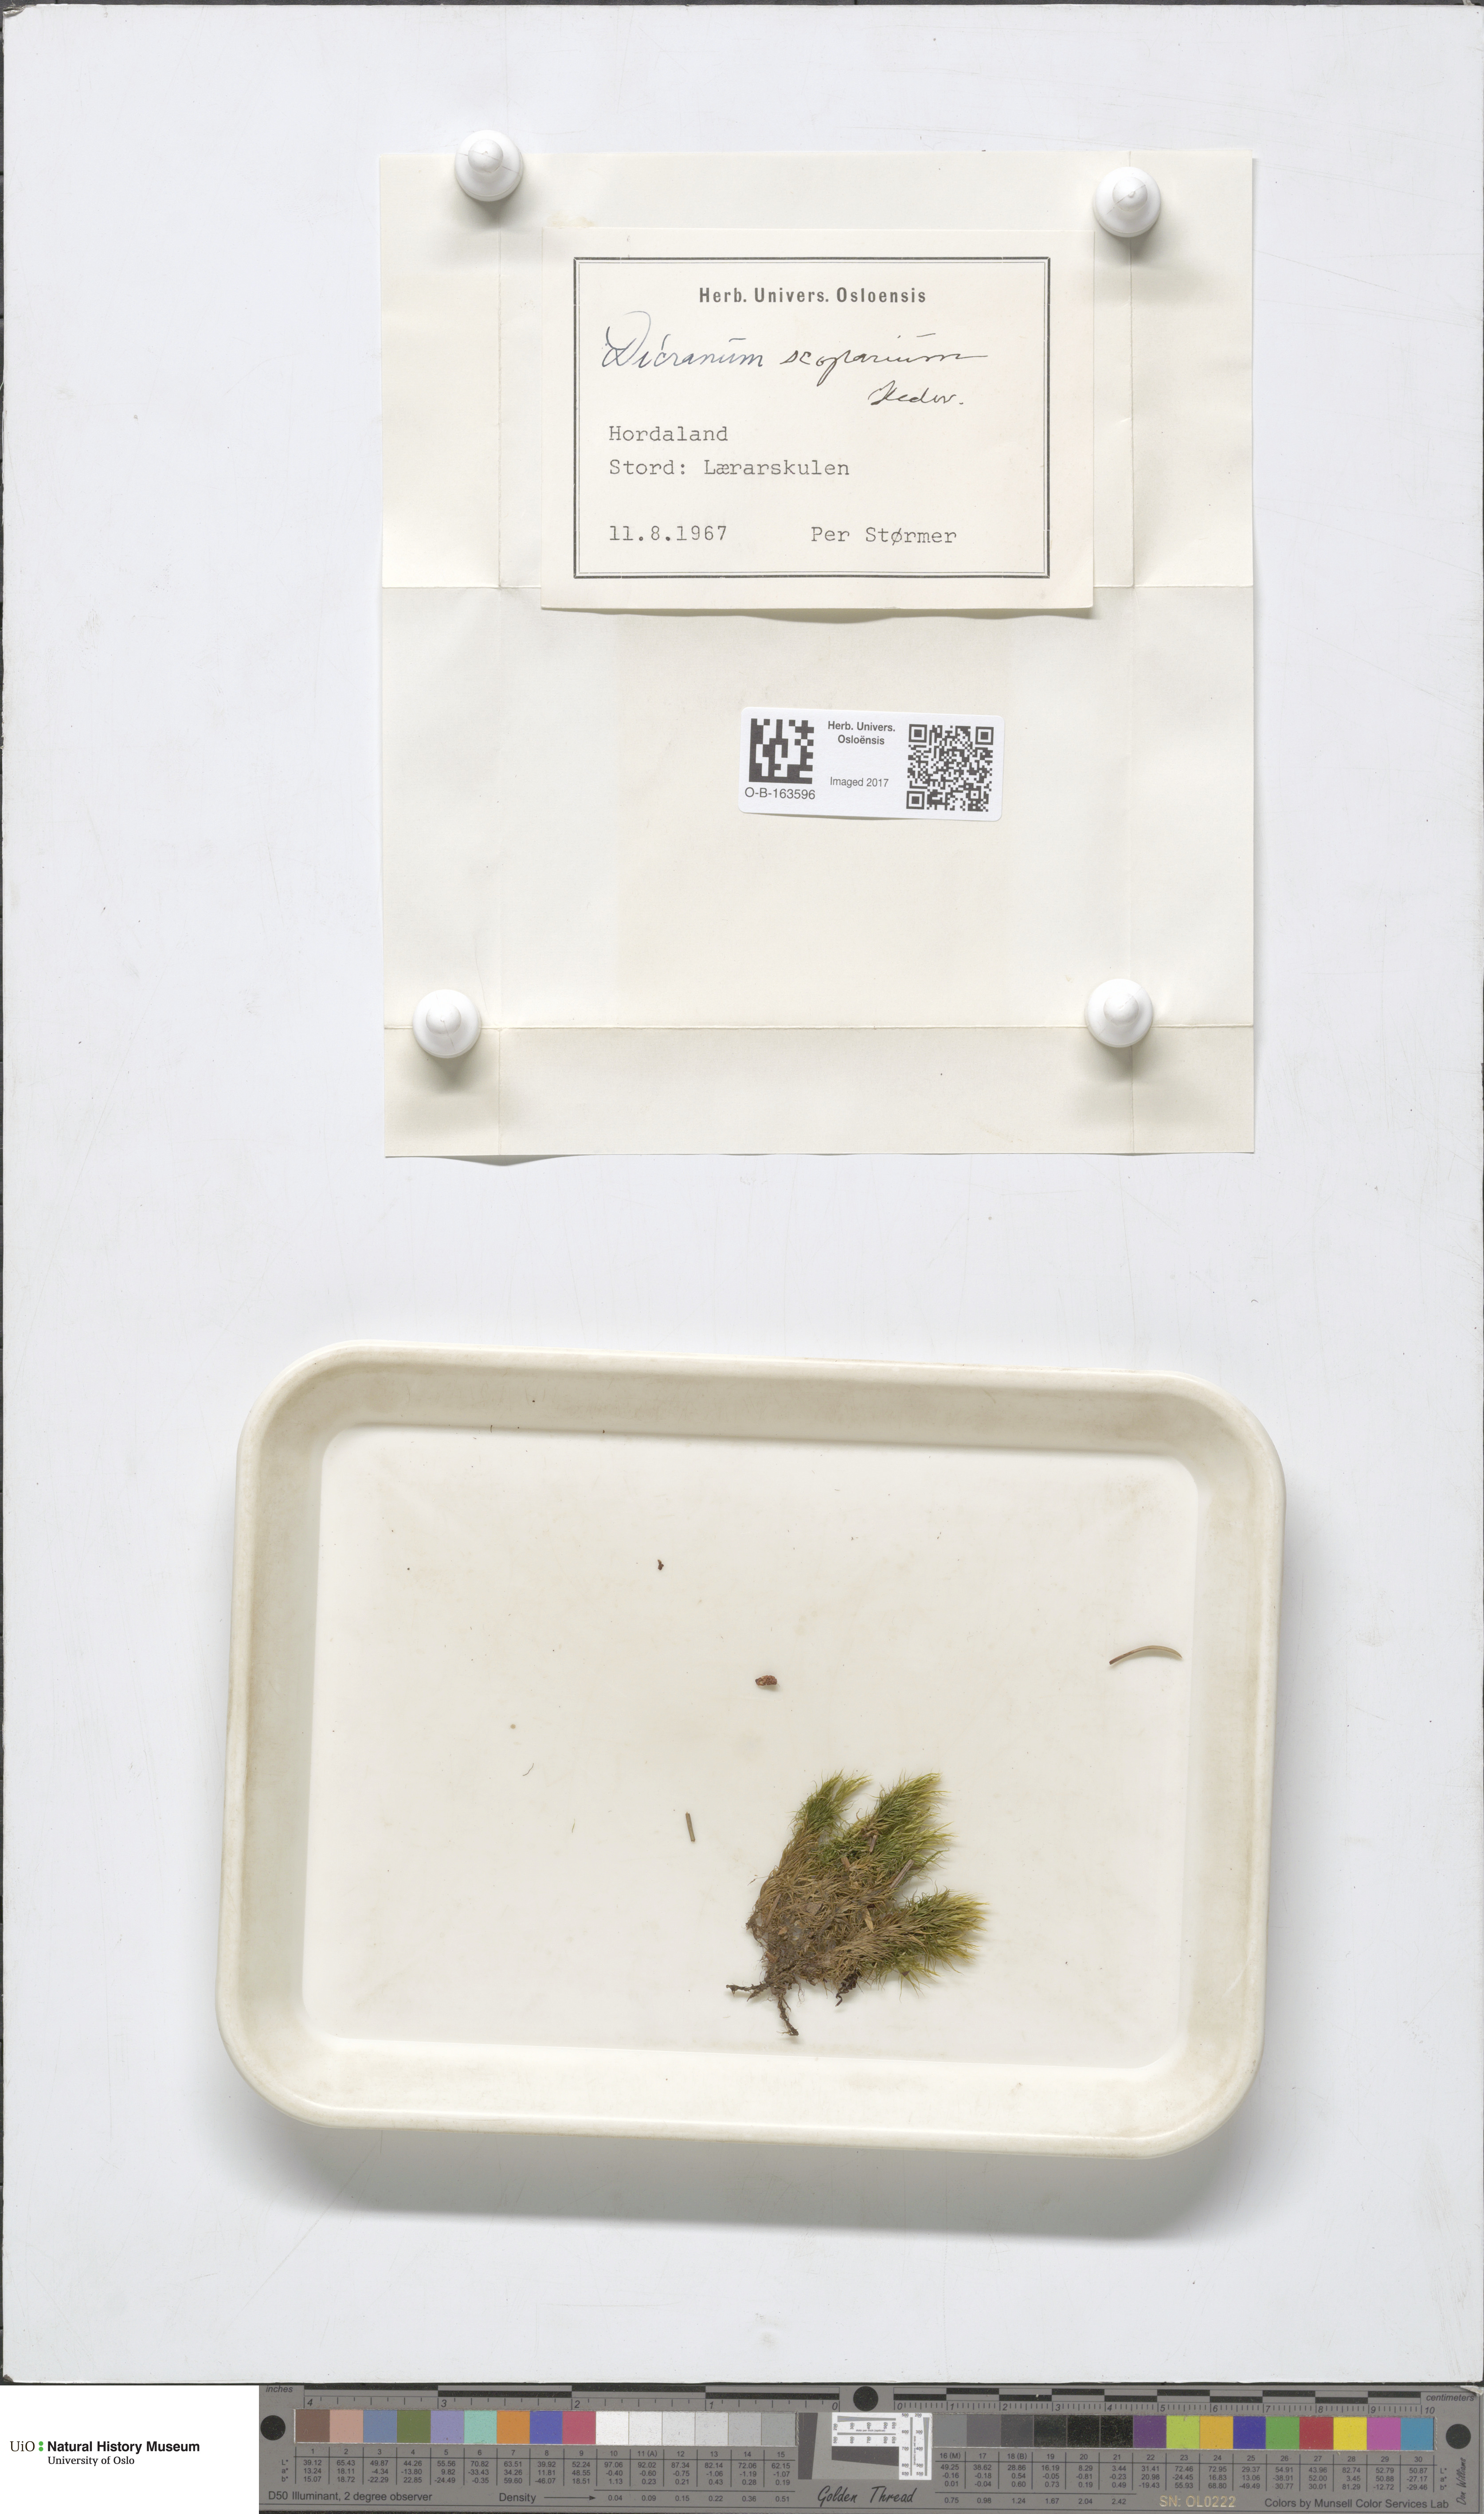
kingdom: Plantae
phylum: Bryophyta
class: Bryopsida
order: Dicranales
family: Dicranaceae
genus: Dicranum
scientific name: Dicranum scoparium
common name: Broom fork-moss
